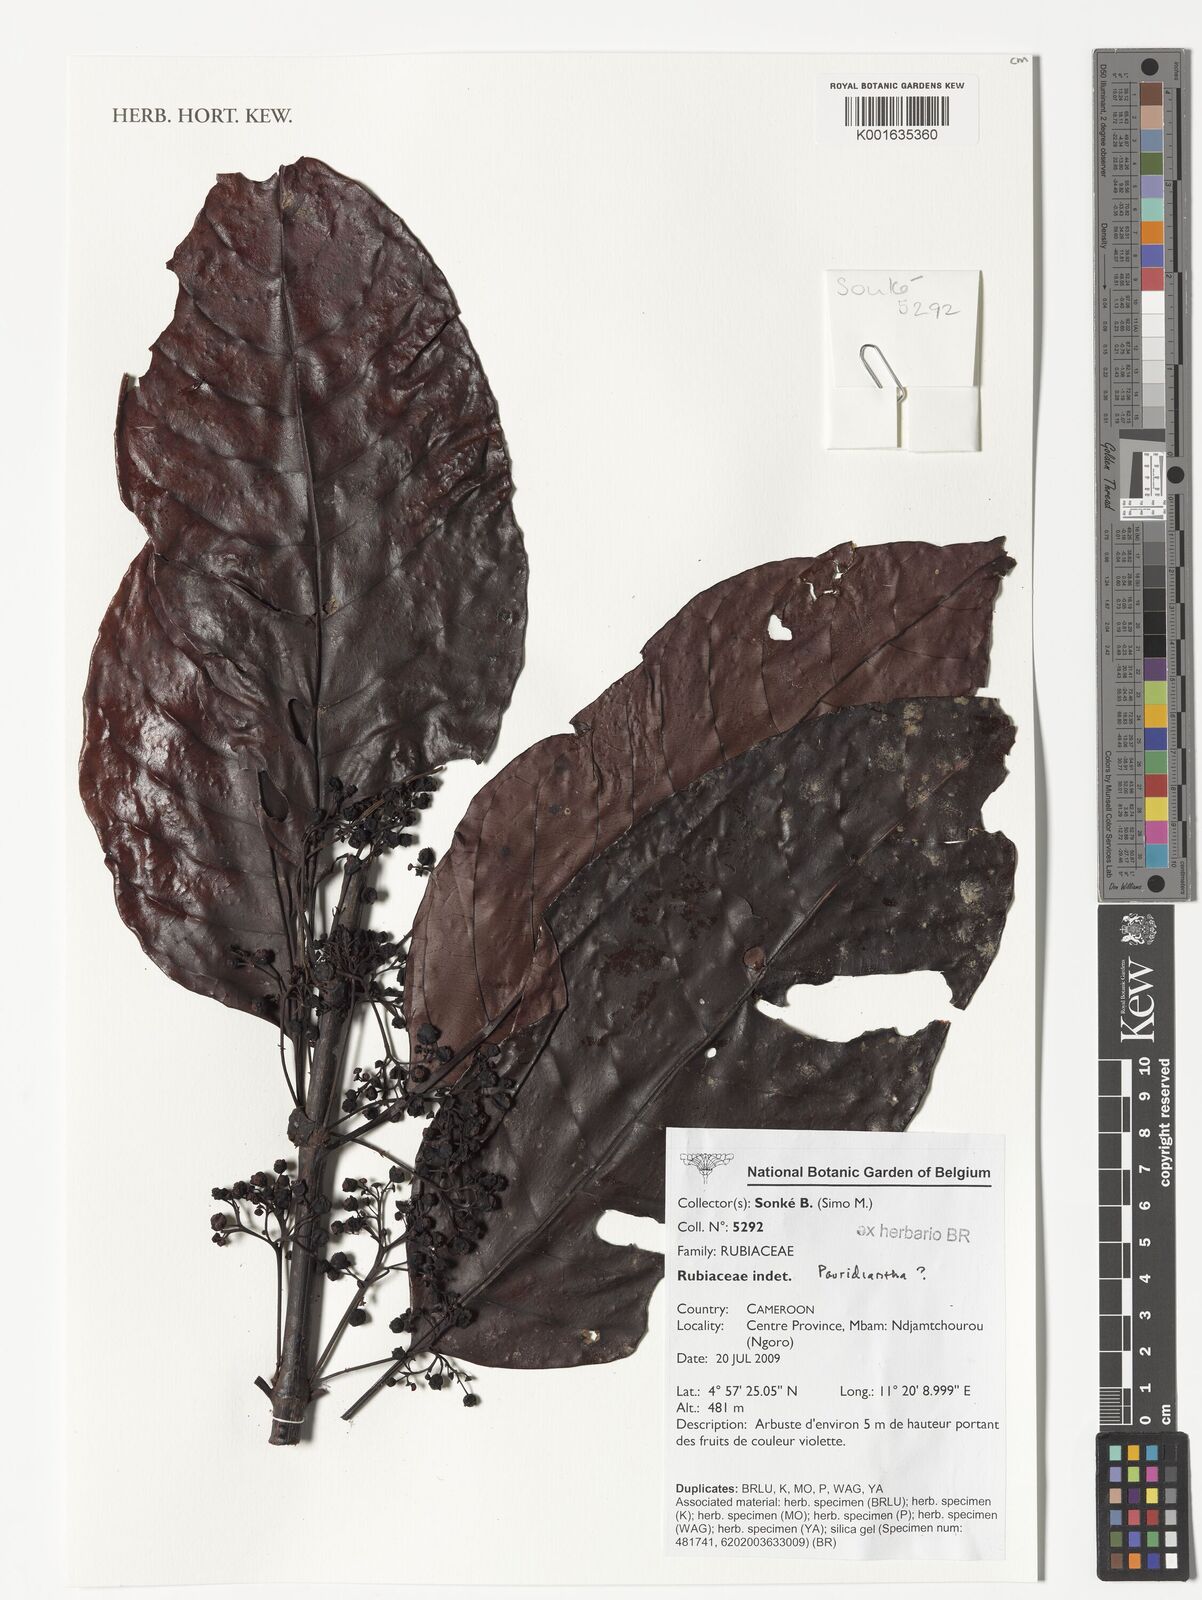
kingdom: Plantae
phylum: Tracheophyta
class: Magnoliopsida
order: Gentianales
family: Rubiaceae
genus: Pauridiantha
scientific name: Pauridiantha
